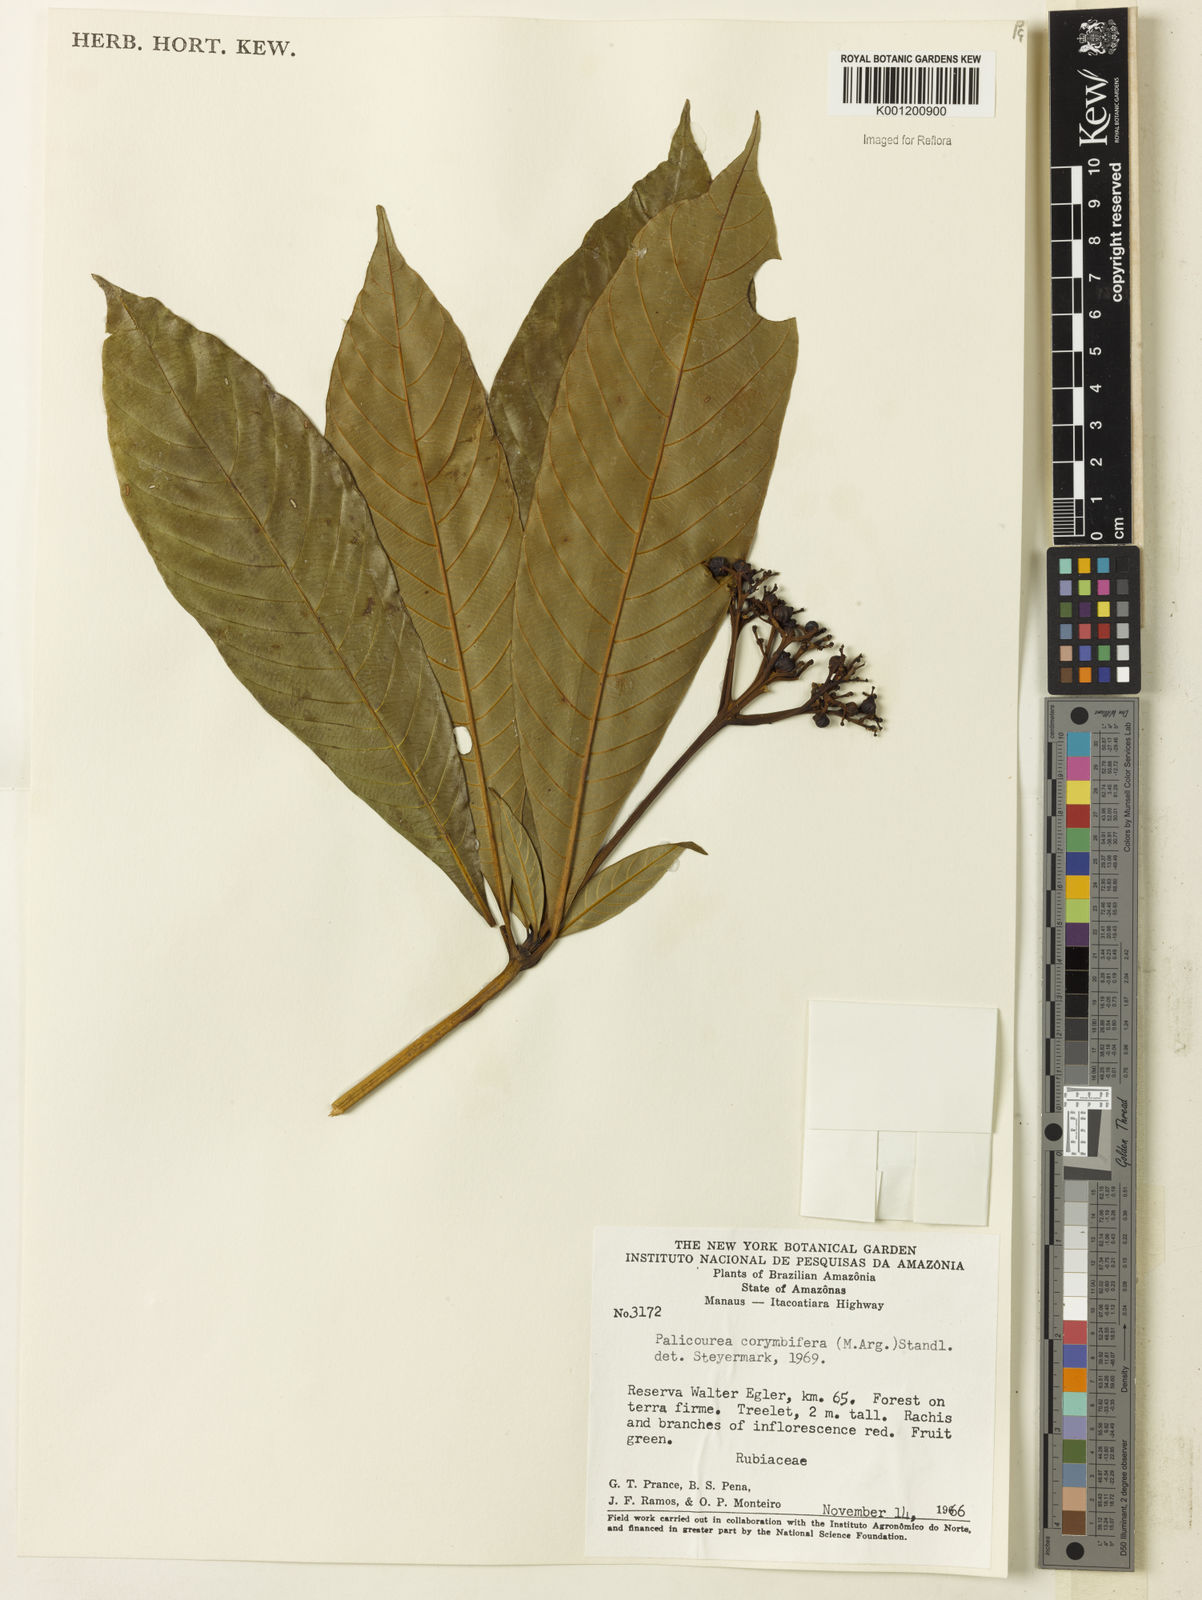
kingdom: Plantae
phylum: Tracheophyta
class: Magnoliopsida
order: Gentianales
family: Rubiaceae
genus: Palicourea
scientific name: Palicourea
